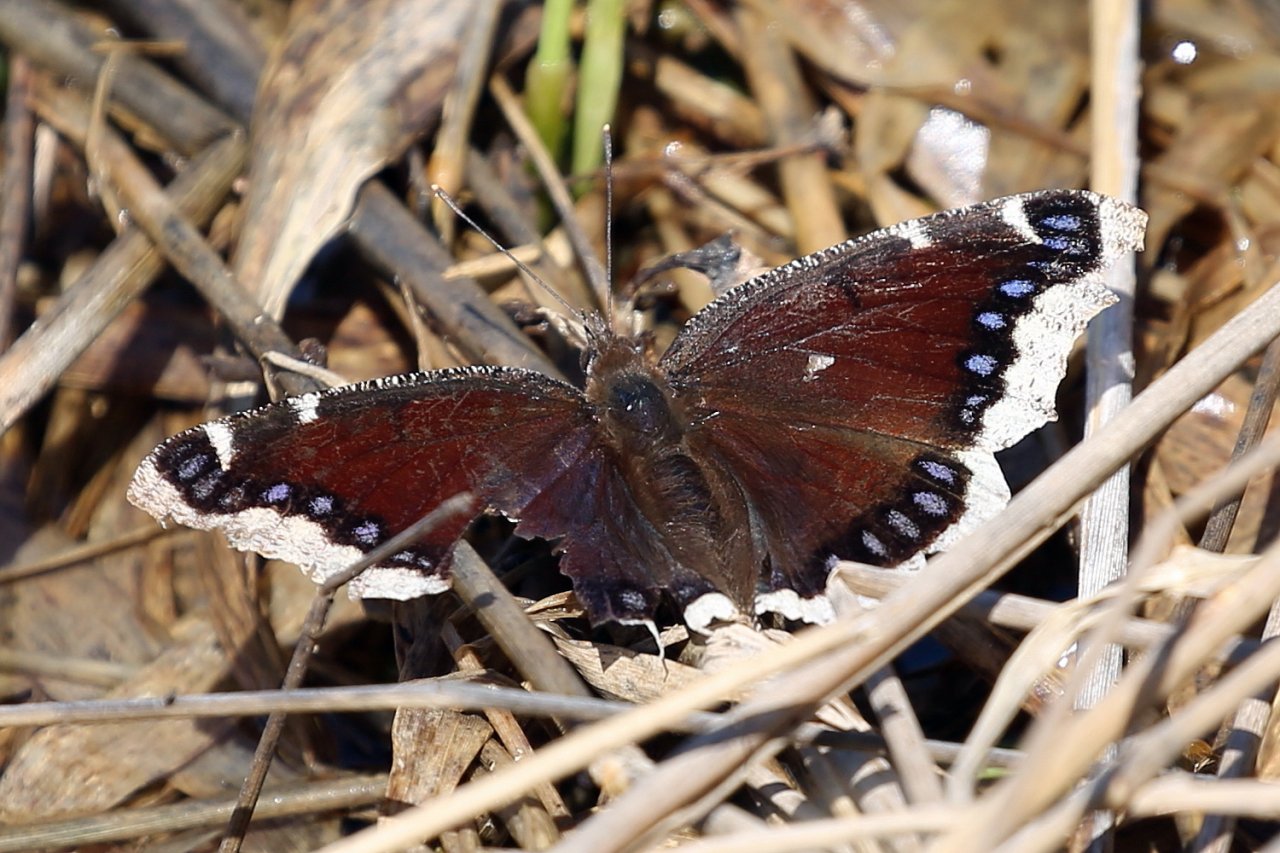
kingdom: Animalia
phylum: Arthropoda
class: Insecta
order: Lepidoptera
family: Nymphalidae
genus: Nymphalis
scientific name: Nymphalis antiopa
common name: Mourning Cloak
